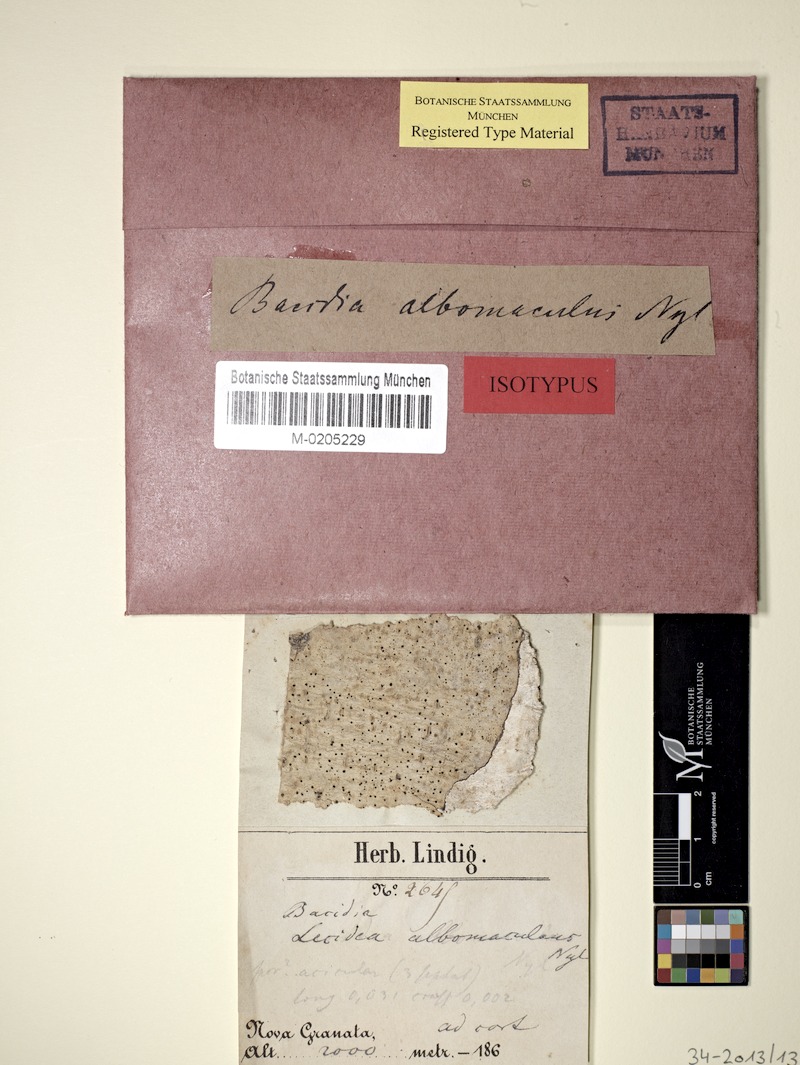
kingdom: Fungi
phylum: Ascomycota
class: Lecanoromycetes
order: Lecanorales
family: Ramalinaceae
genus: Bacidia
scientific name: Bacidia albomaculans
